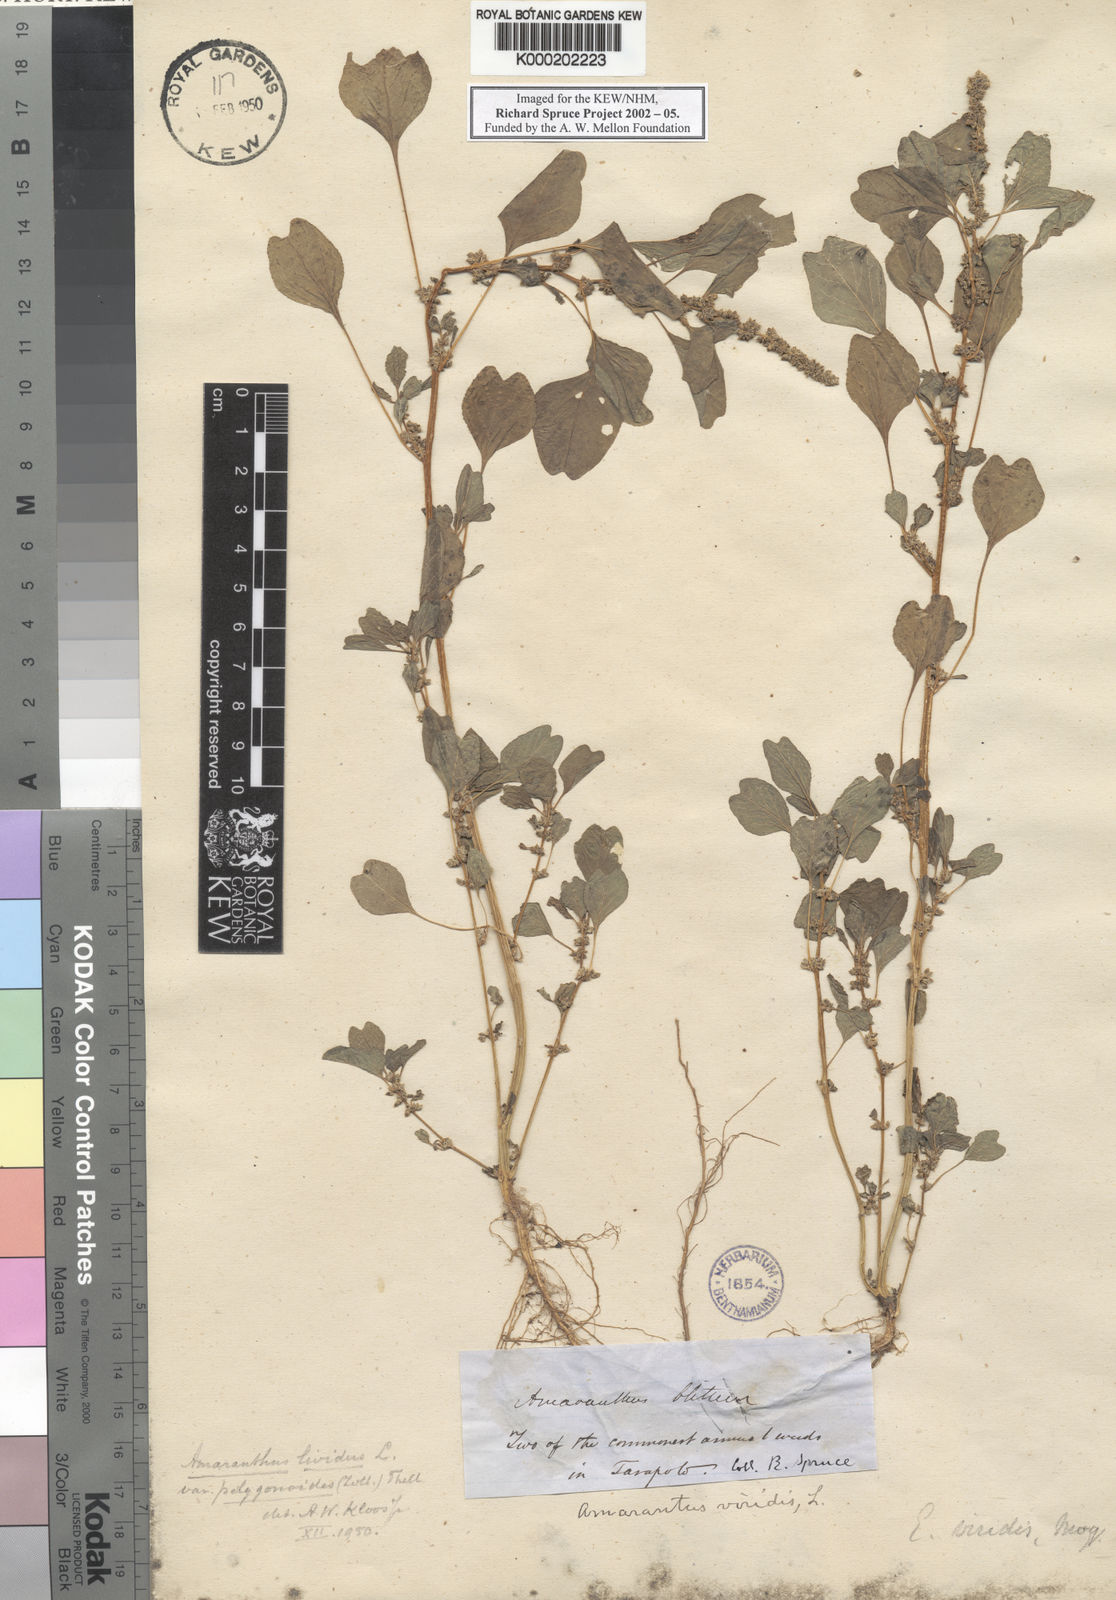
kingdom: Plantae
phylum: Tracheophyta
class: Magnoliopsida
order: Caryophyllales
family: Amaranthaceae
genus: Amaranthus
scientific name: Amaranthus emarginatus
